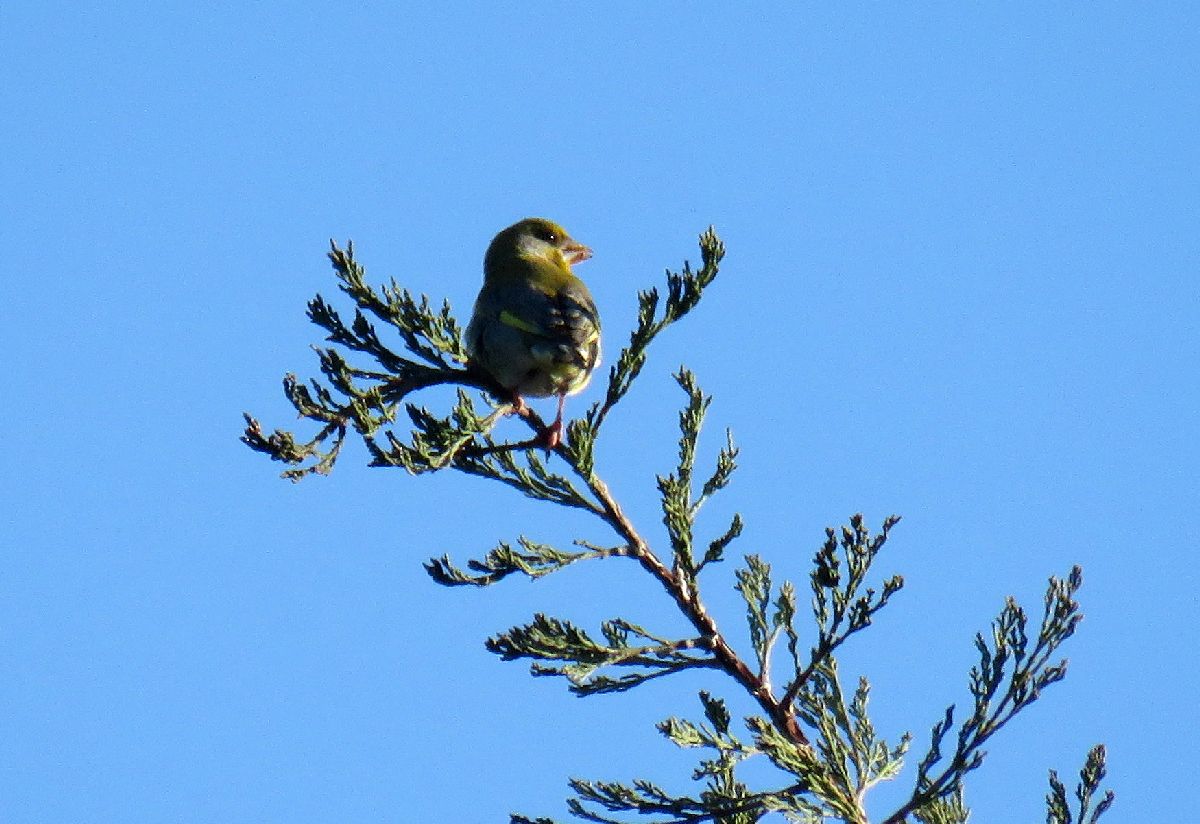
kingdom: Plantae
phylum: Tracheophyta
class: Liliopsida
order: Poales
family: Poaceae
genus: Chloris
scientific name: Chloris chloris
